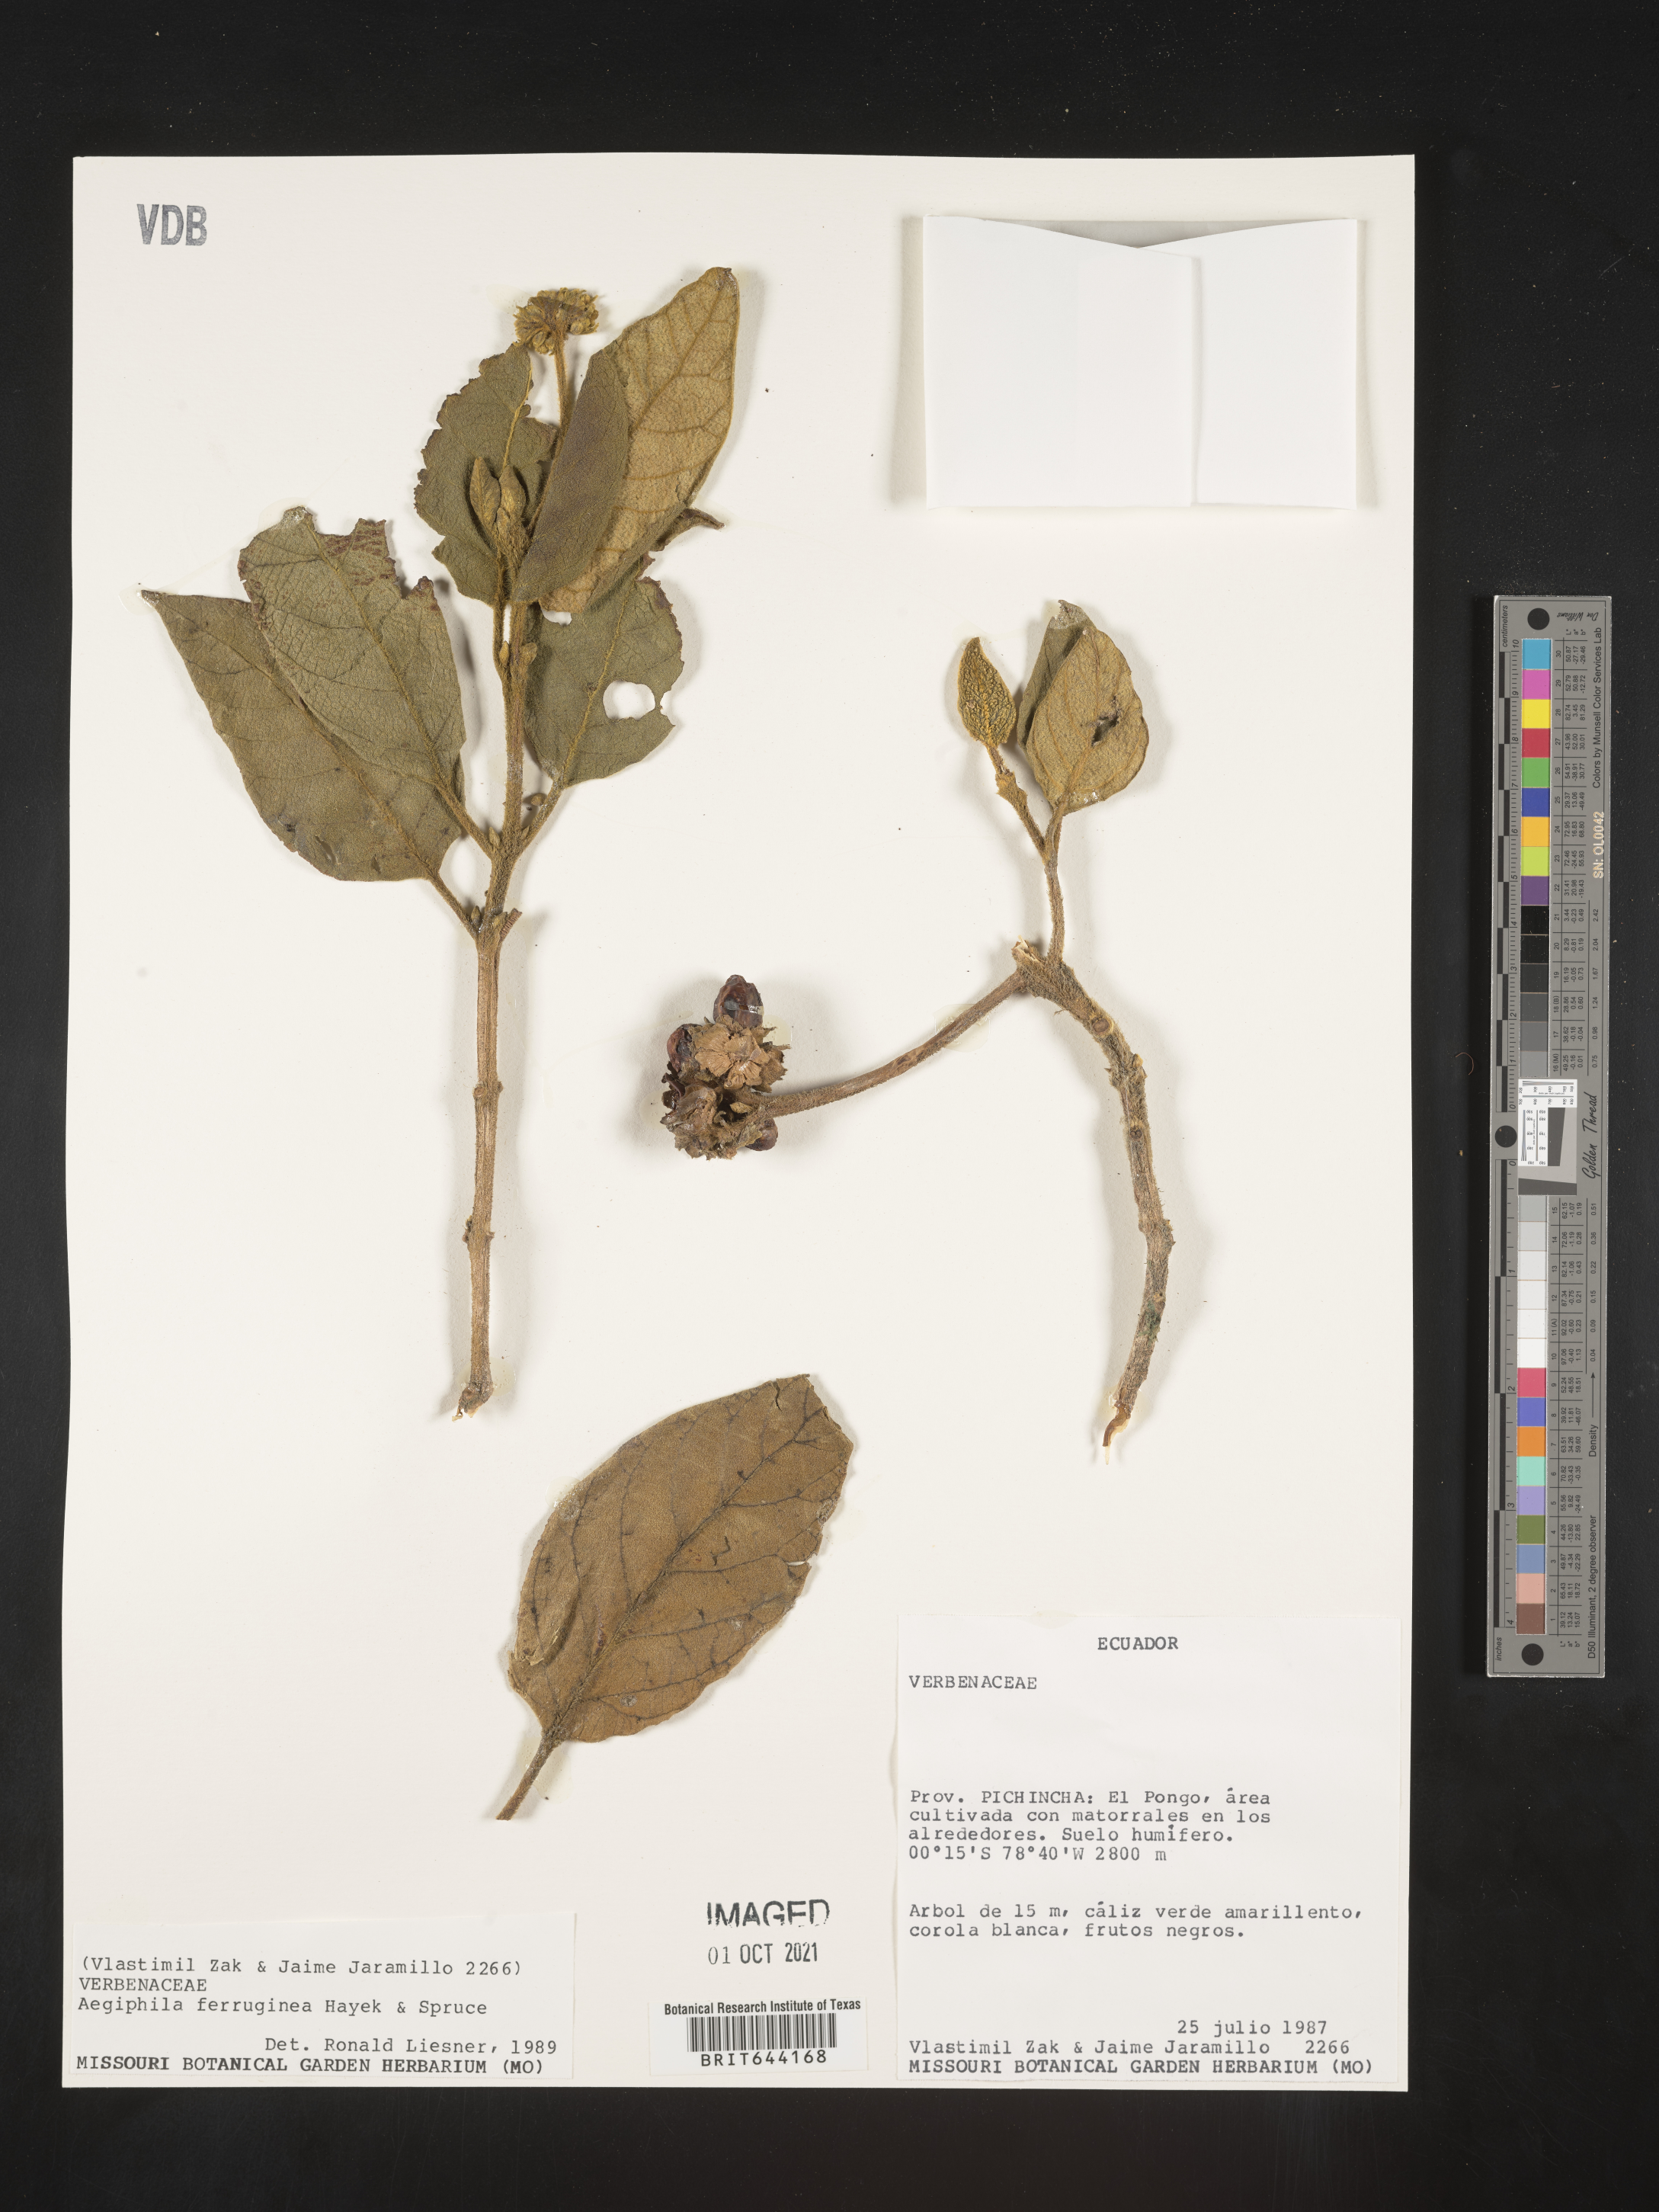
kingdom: Plantae
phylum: Tracheophyta
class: Magnoliopsida
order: Lamiales
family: Lamiaceae
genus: Aegiphila
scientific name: Aegiphila
